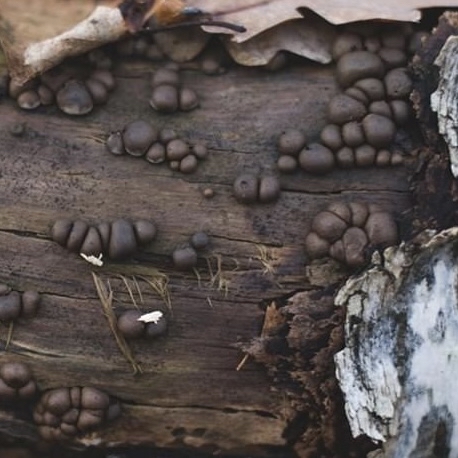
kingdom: Protozoa
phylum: Mycetozoa
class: Myxomycetes
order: Cribrariales
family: Tubiferaceae
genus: Lycogala
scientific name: Lycogala epidendrum
